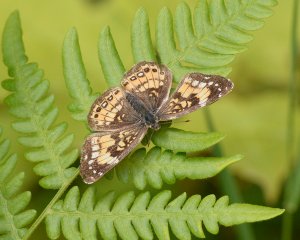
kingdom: Animalia
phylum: Arthropoda
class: Insecta
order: Lepidoptera
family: Nymphalidae
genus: Chlosyne
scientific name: Chlosyne nycteis
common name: Silvery Checkerspot
